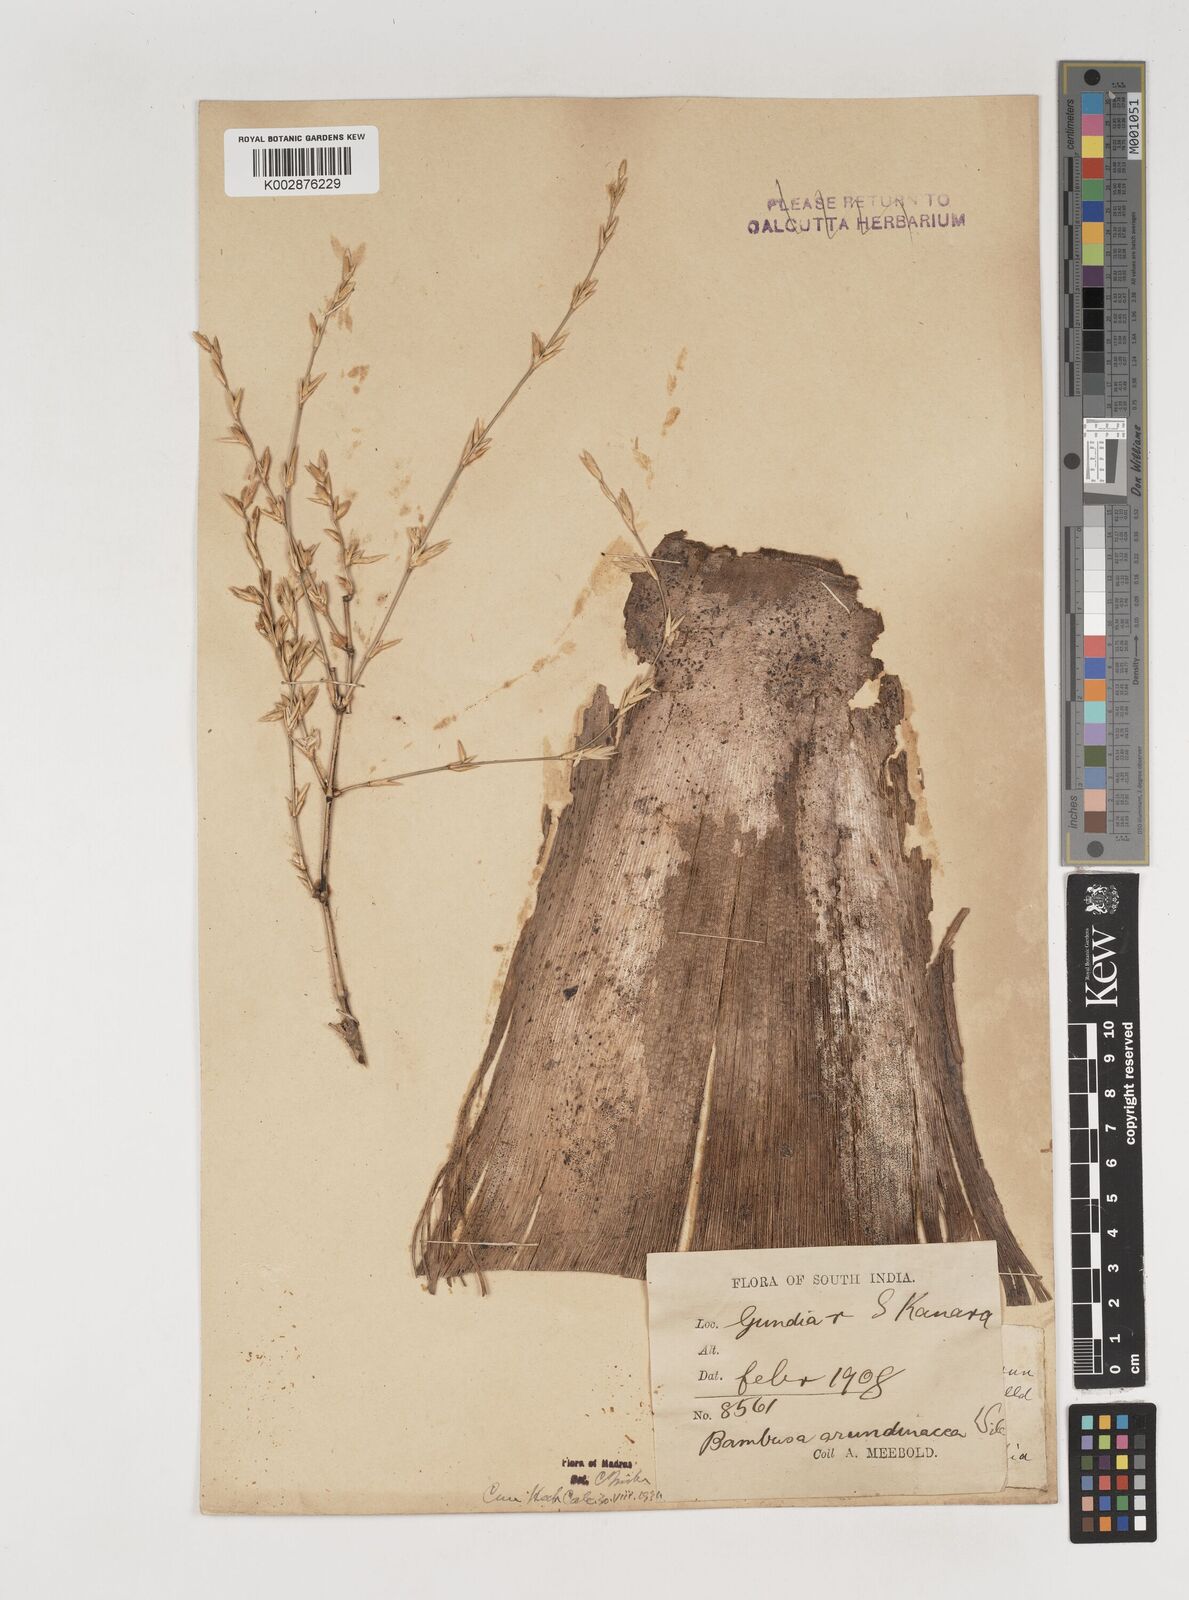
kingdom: Plantae
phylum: Tracheophyta
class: Liliopsida
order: Poales
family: Poaceae
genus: Bambusa
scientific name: Bambusa bambos
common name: Indian thorny bamboo
